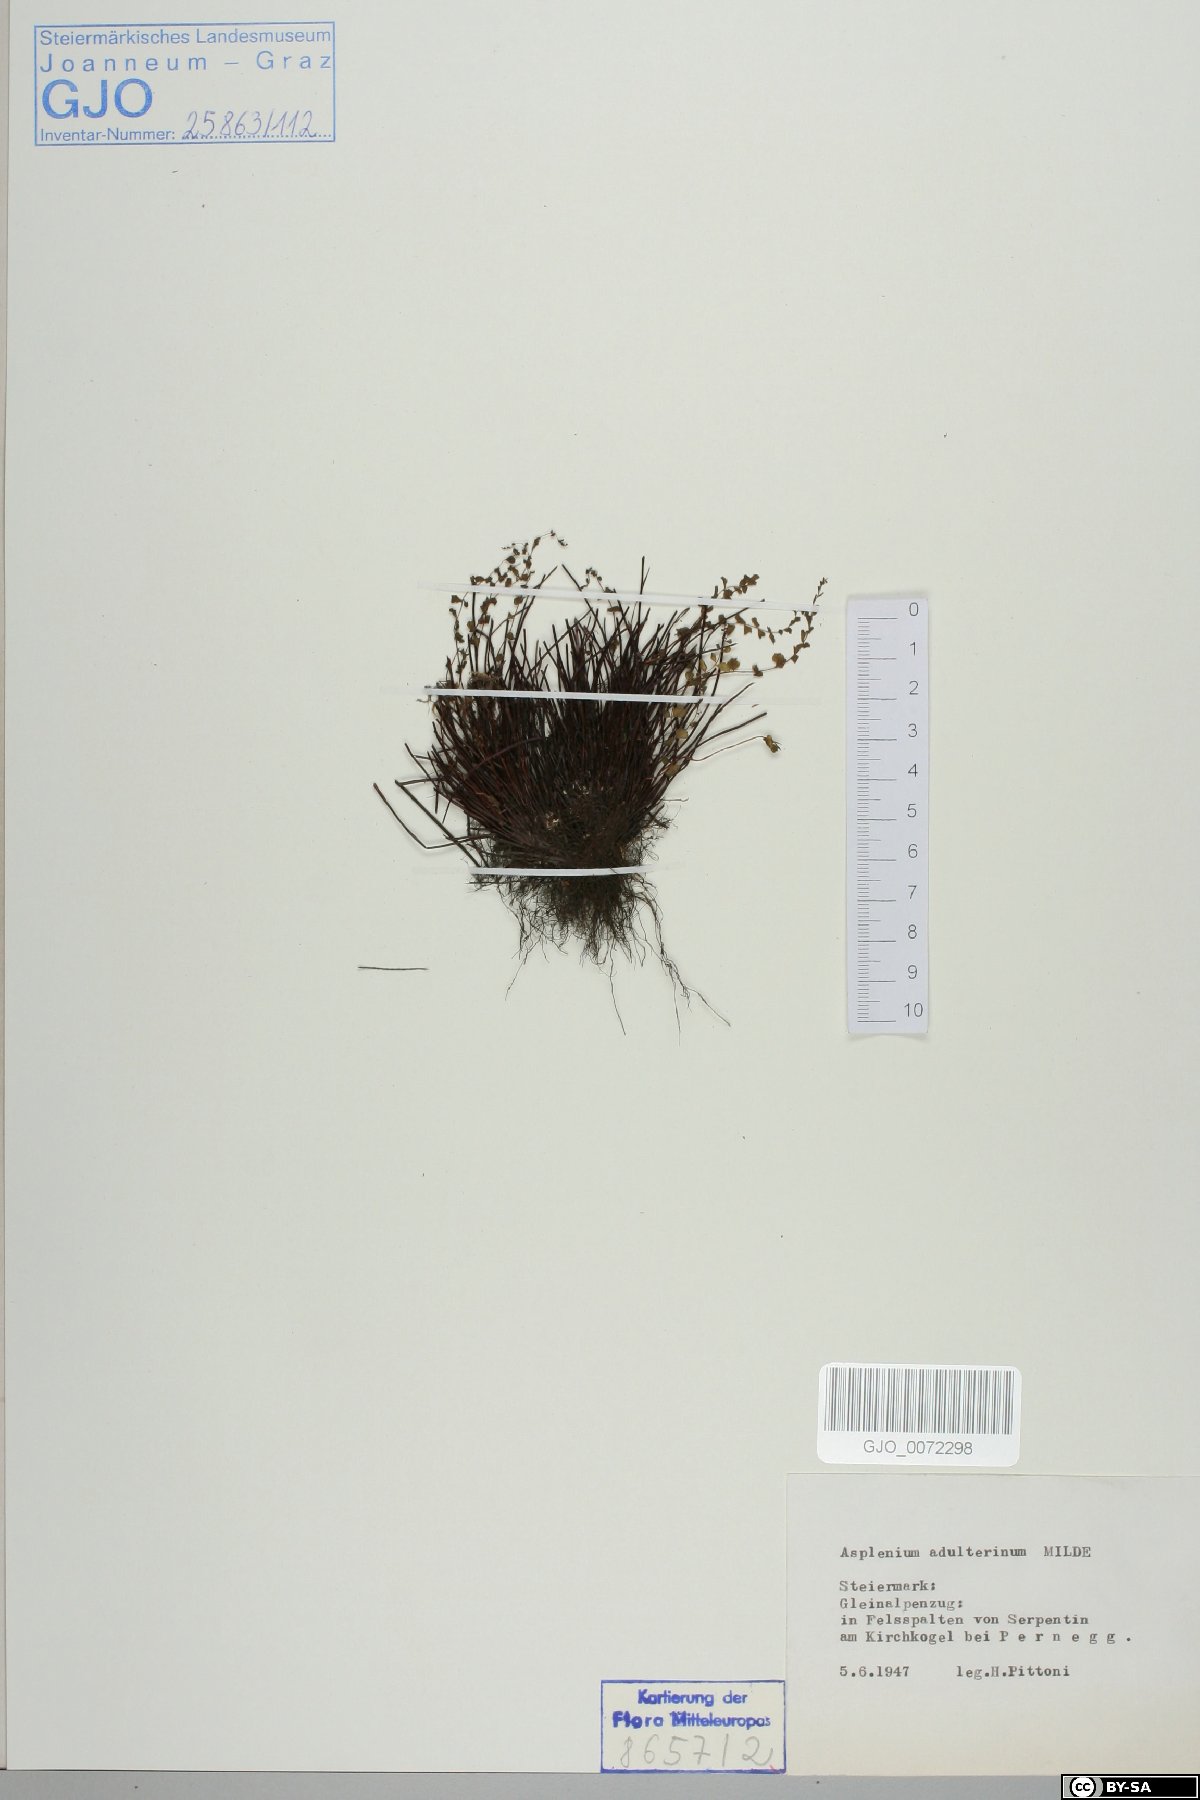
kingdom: Plantae
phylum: Tracheophyta
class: Polypodiopsida
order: Polypodiales
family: Aspleniaceae
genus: Asplenium
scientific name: Asplenium adulterinum
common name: Adulterated spleenwort
